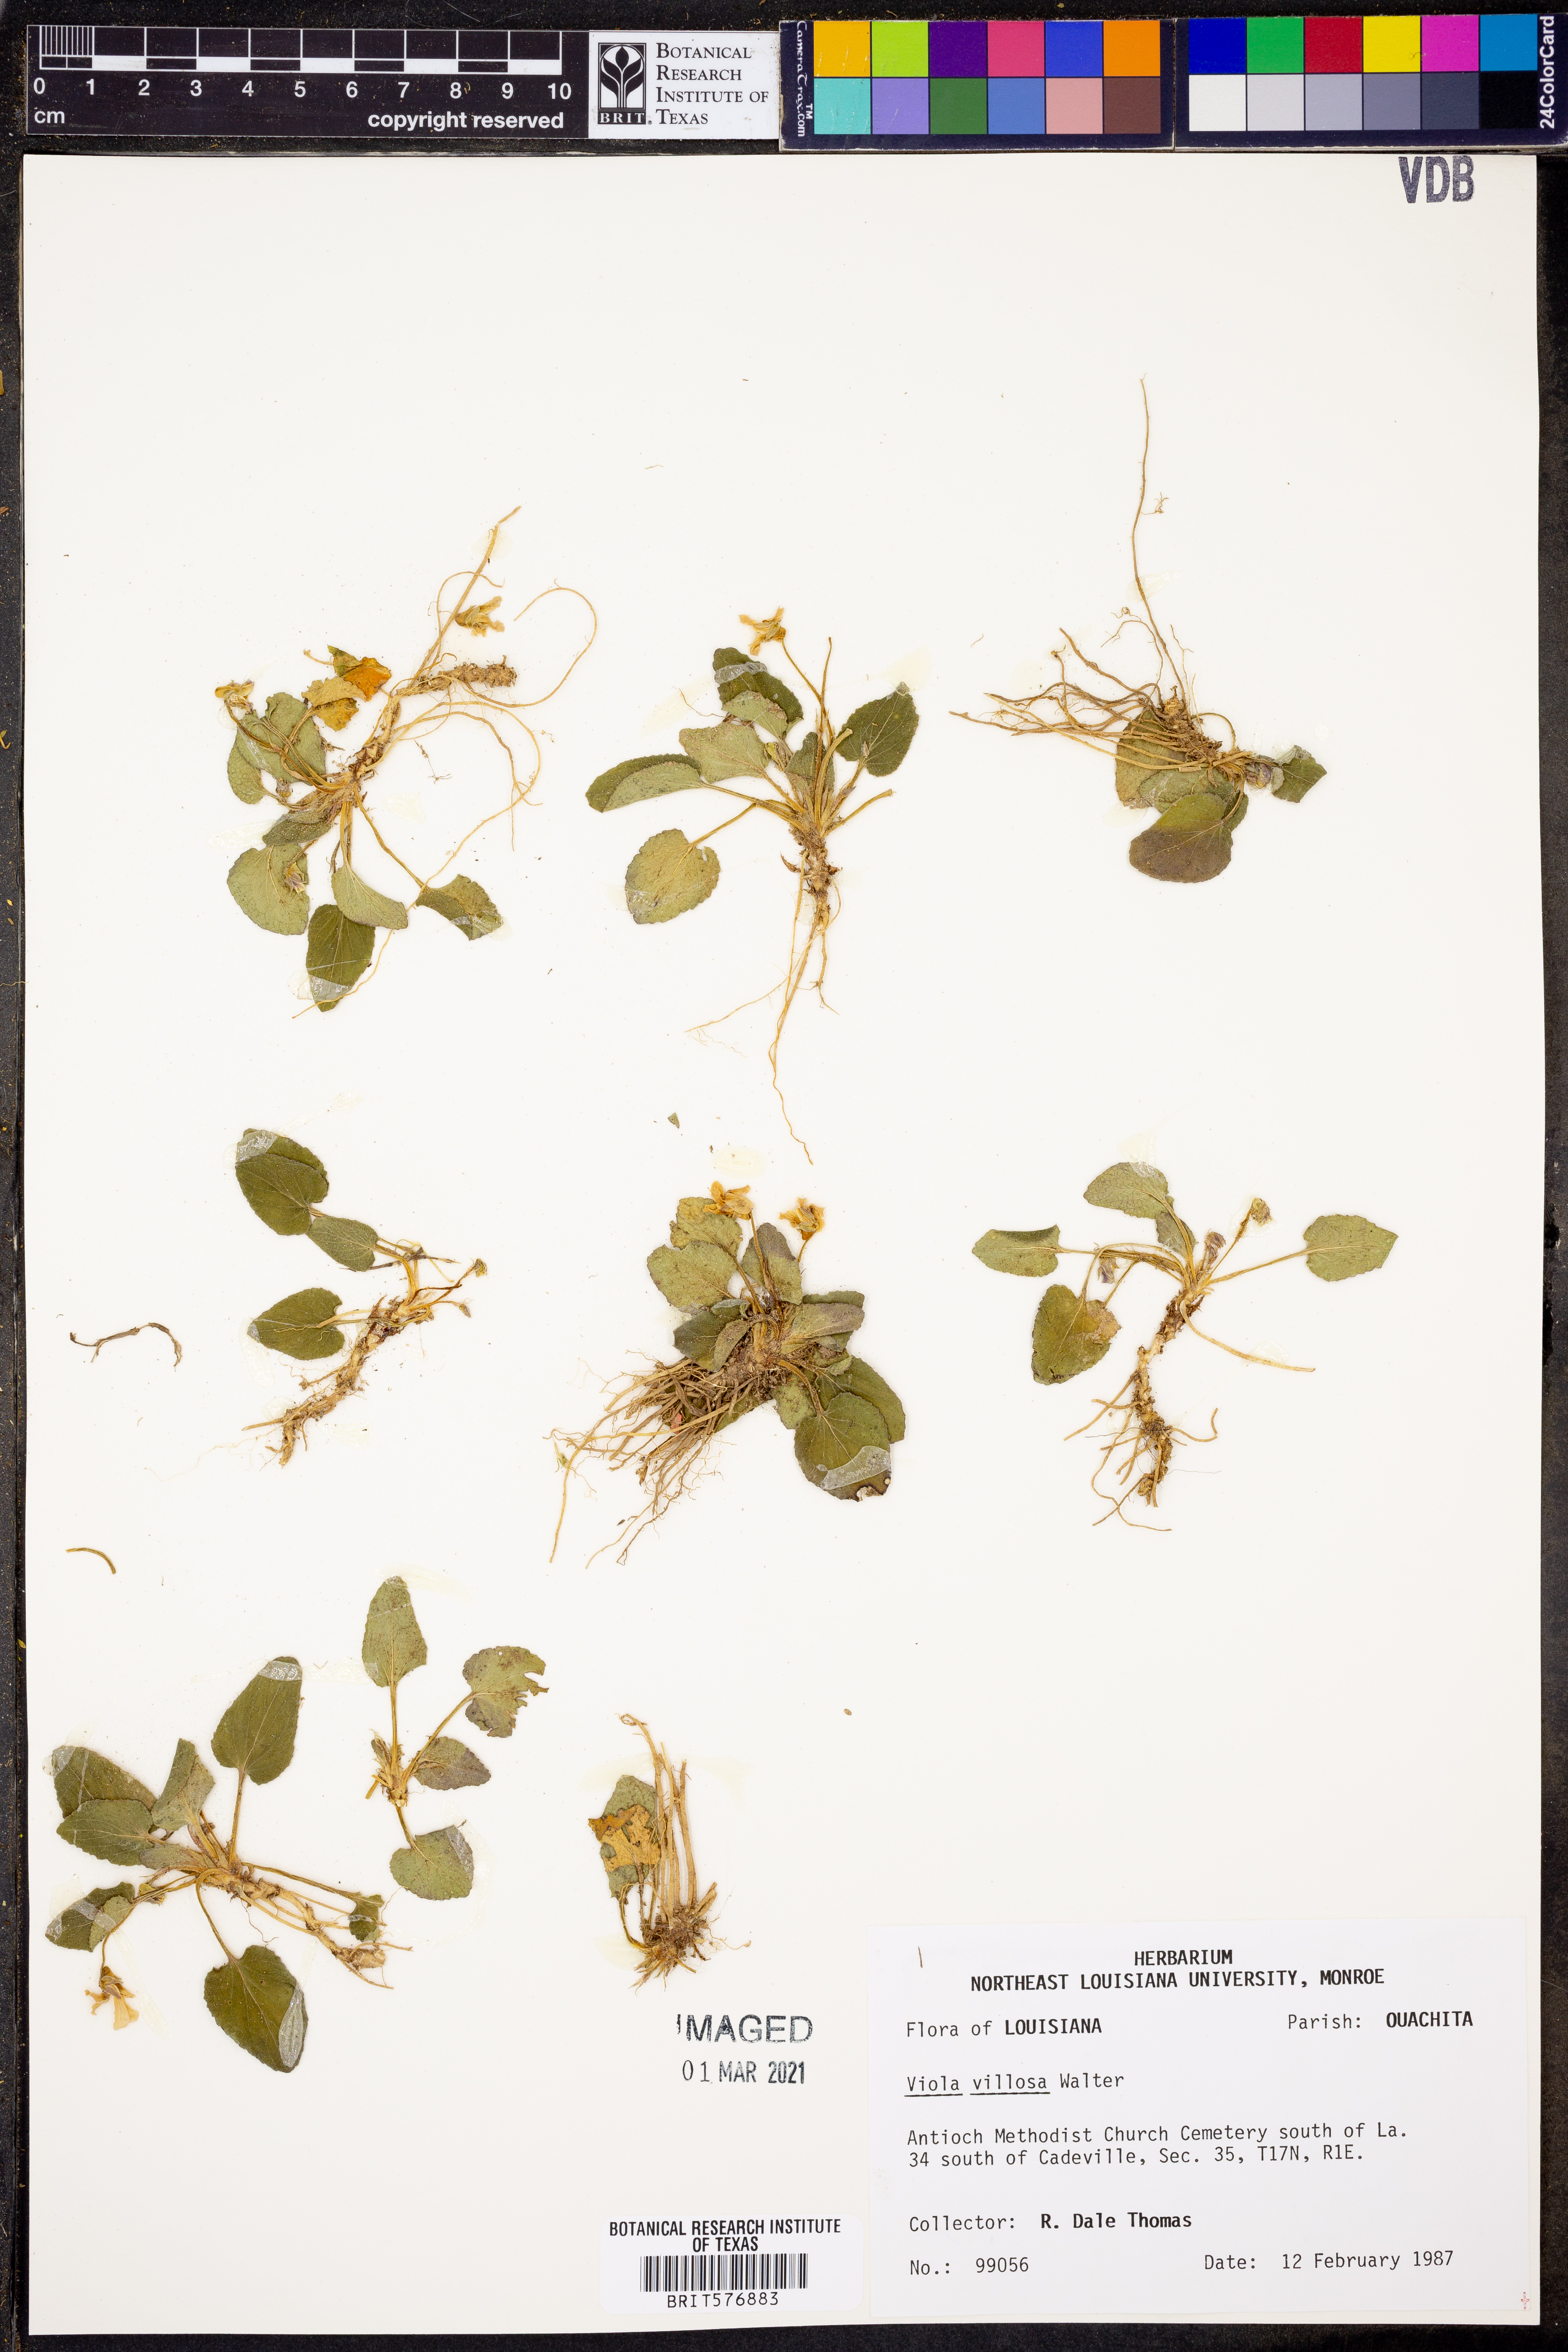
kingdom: Plantae
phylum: Tracheophyta
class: Magnoliopsida
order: Malpighiales
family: Violaceae
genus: Viola
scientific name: Viola villosa
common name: Carolina violet
